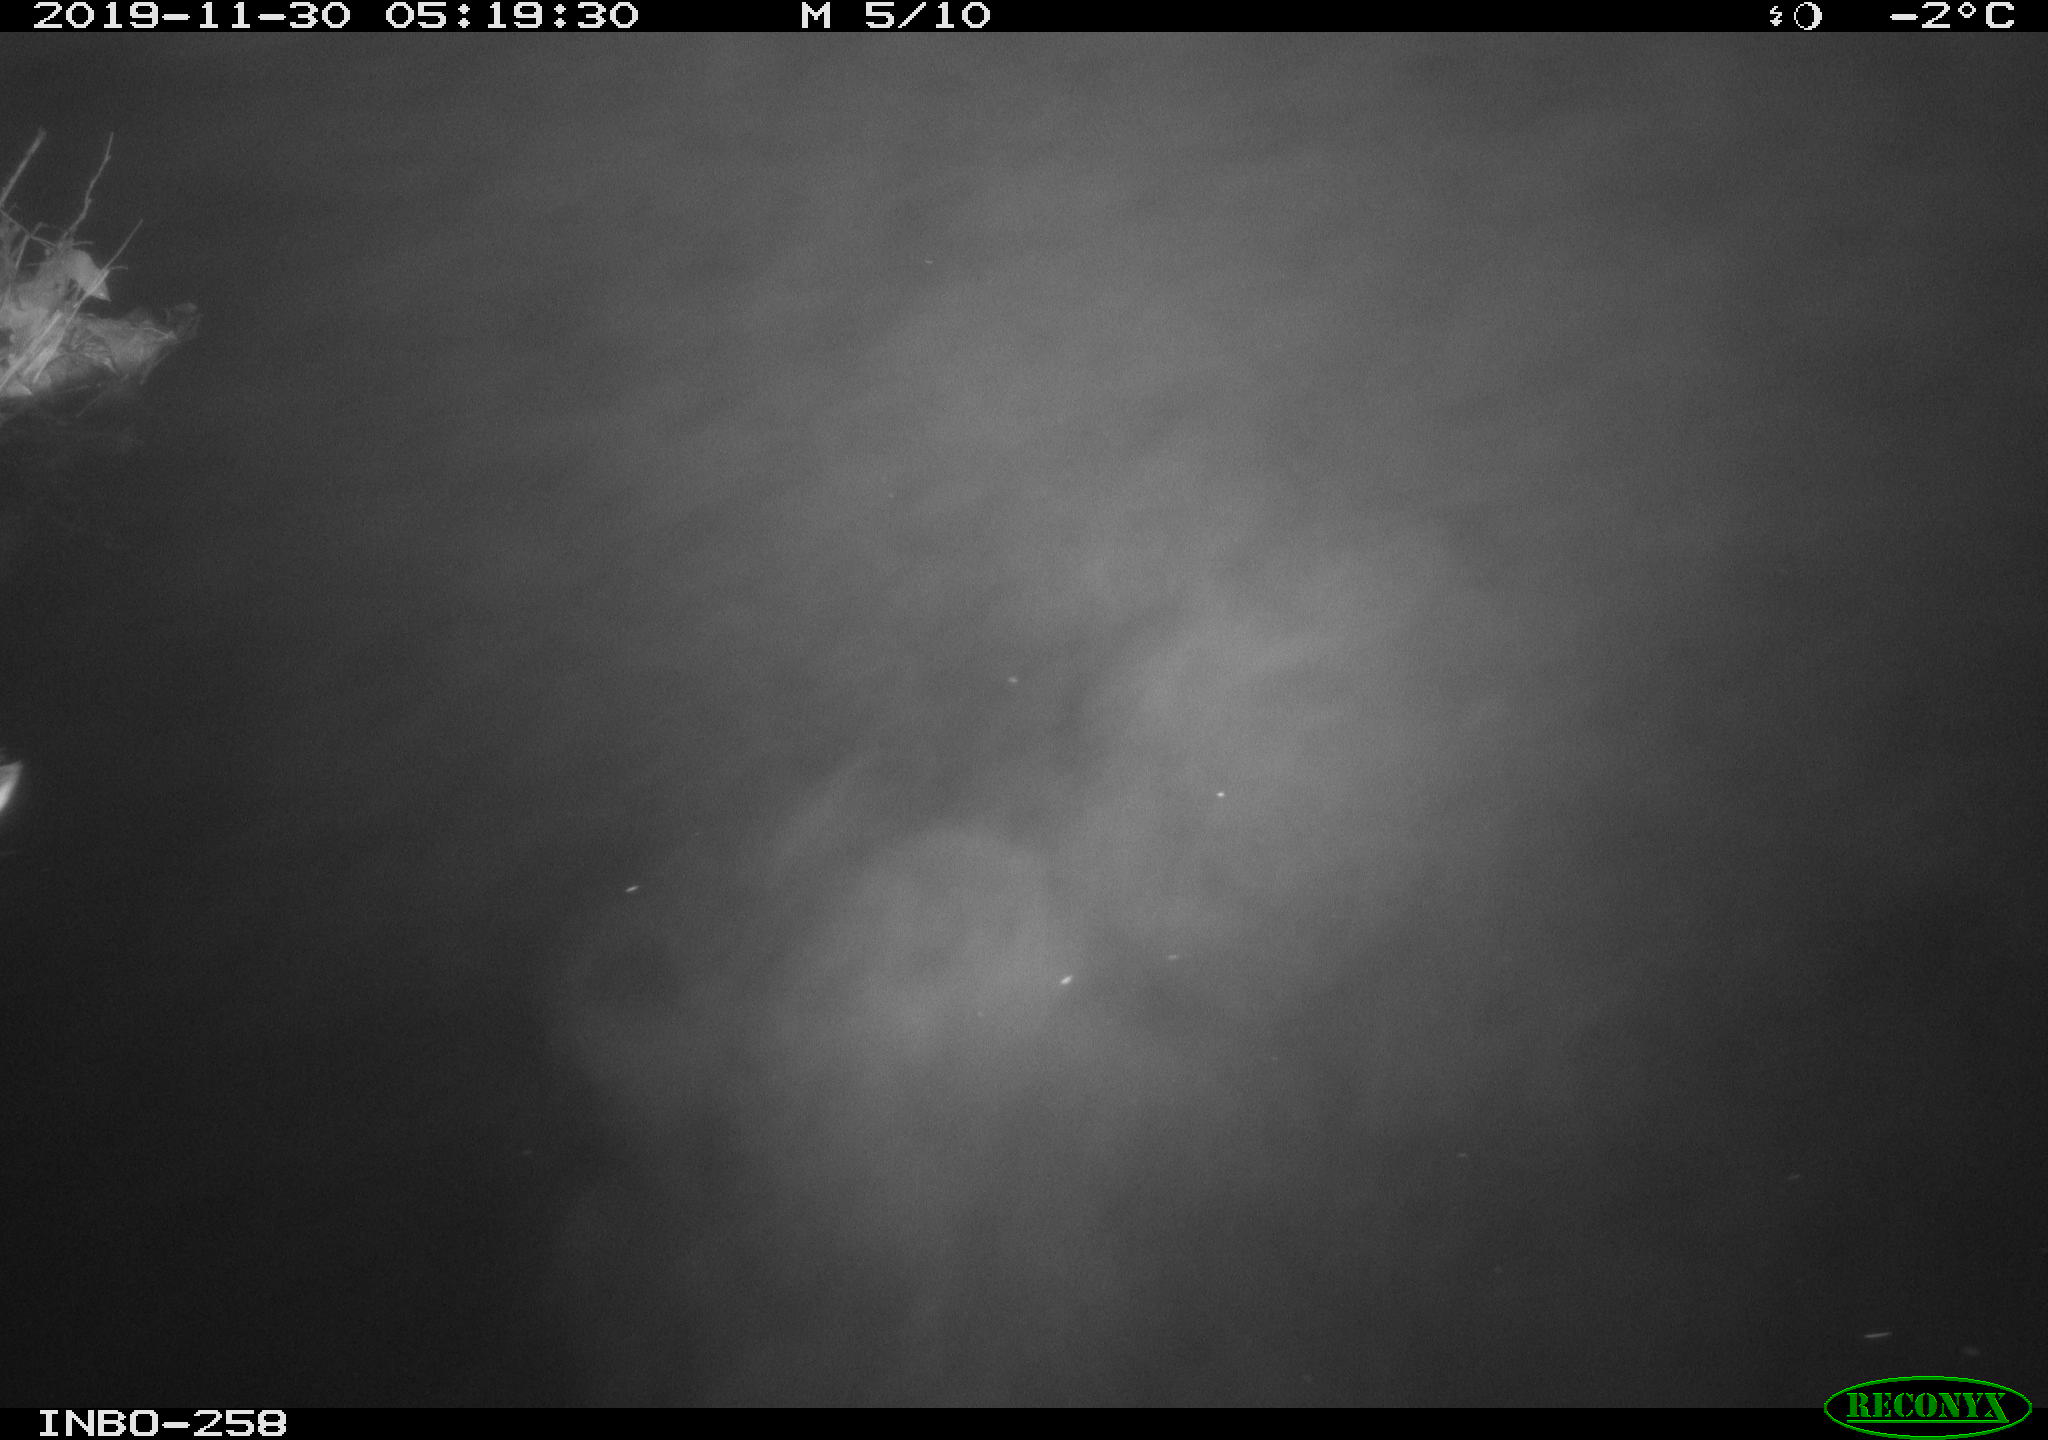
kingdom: Animalia
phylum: Chordata
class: Aves
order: Anseriformes
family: Anatidae
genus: Anas
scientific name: Anas platyrhynchos
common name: Mallard
